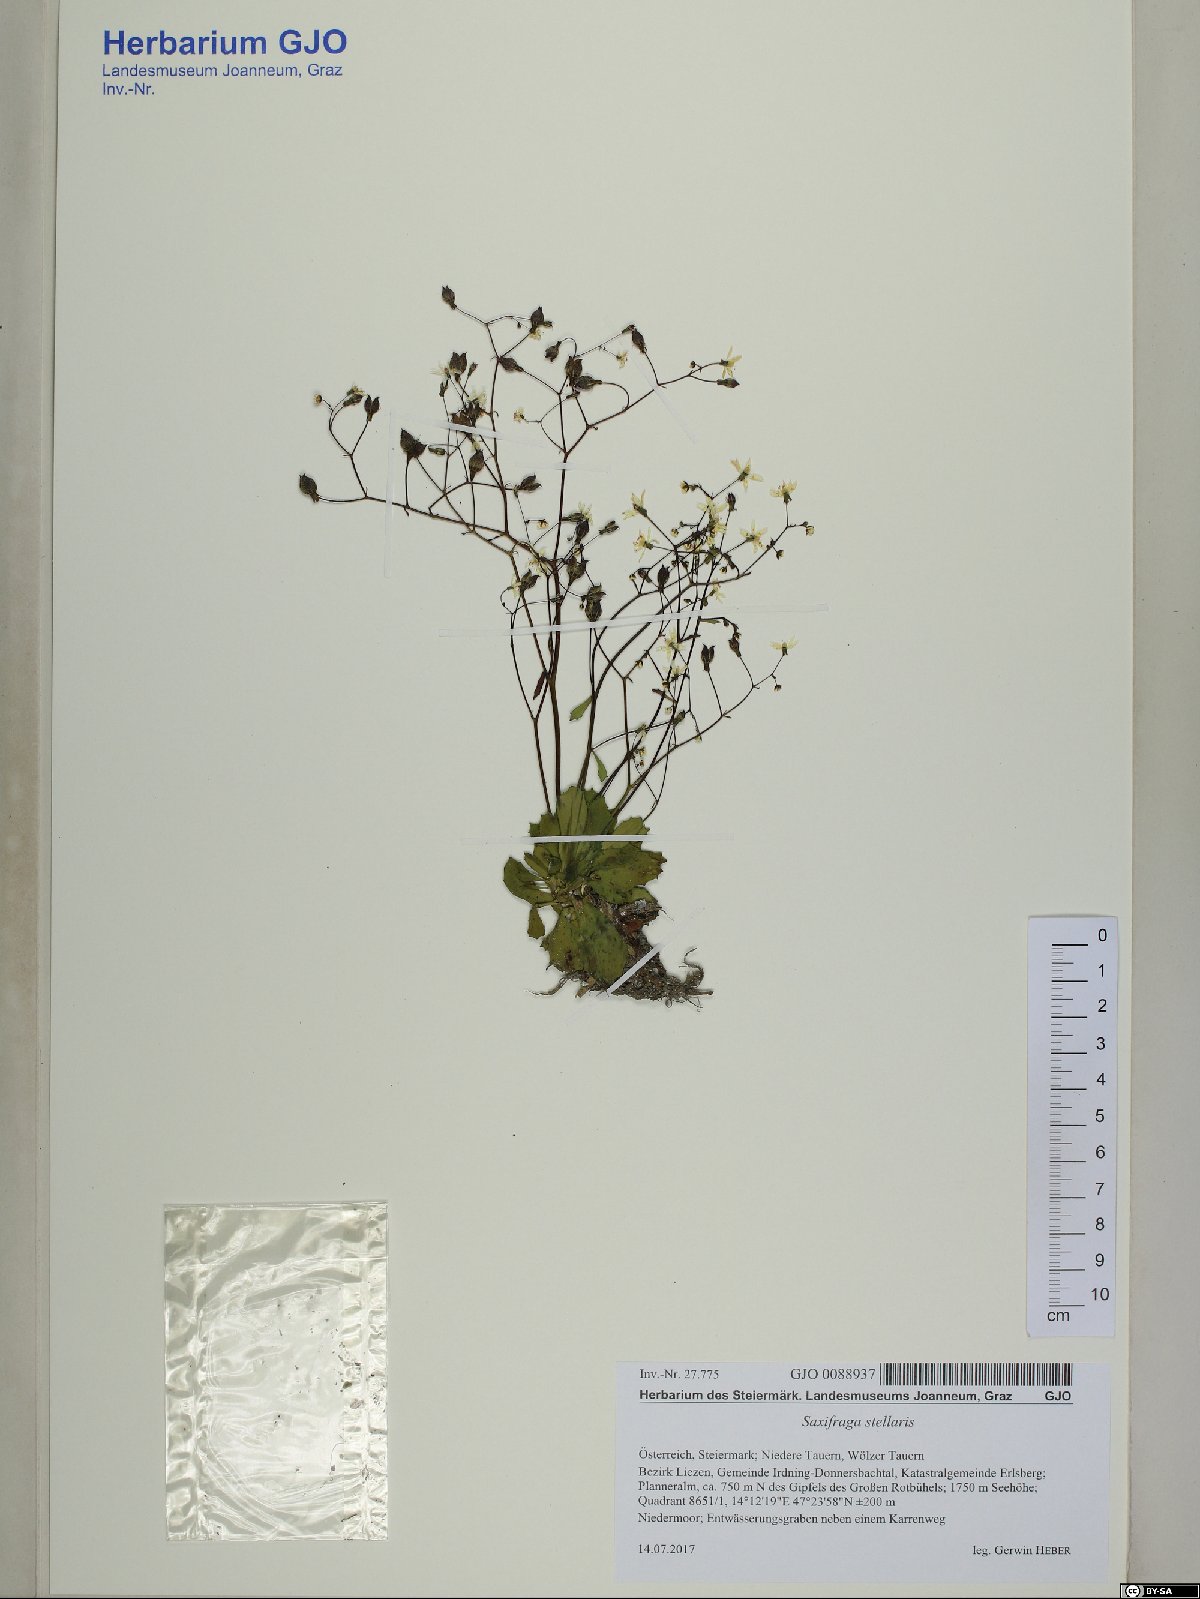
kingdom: Plantae
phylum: Tracheophyta
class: Magnoliopsida
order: Saxifragales
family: Saxifragaceae
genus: Micranthes
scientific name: Micranthes stellaris
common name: Starry saxifrage
